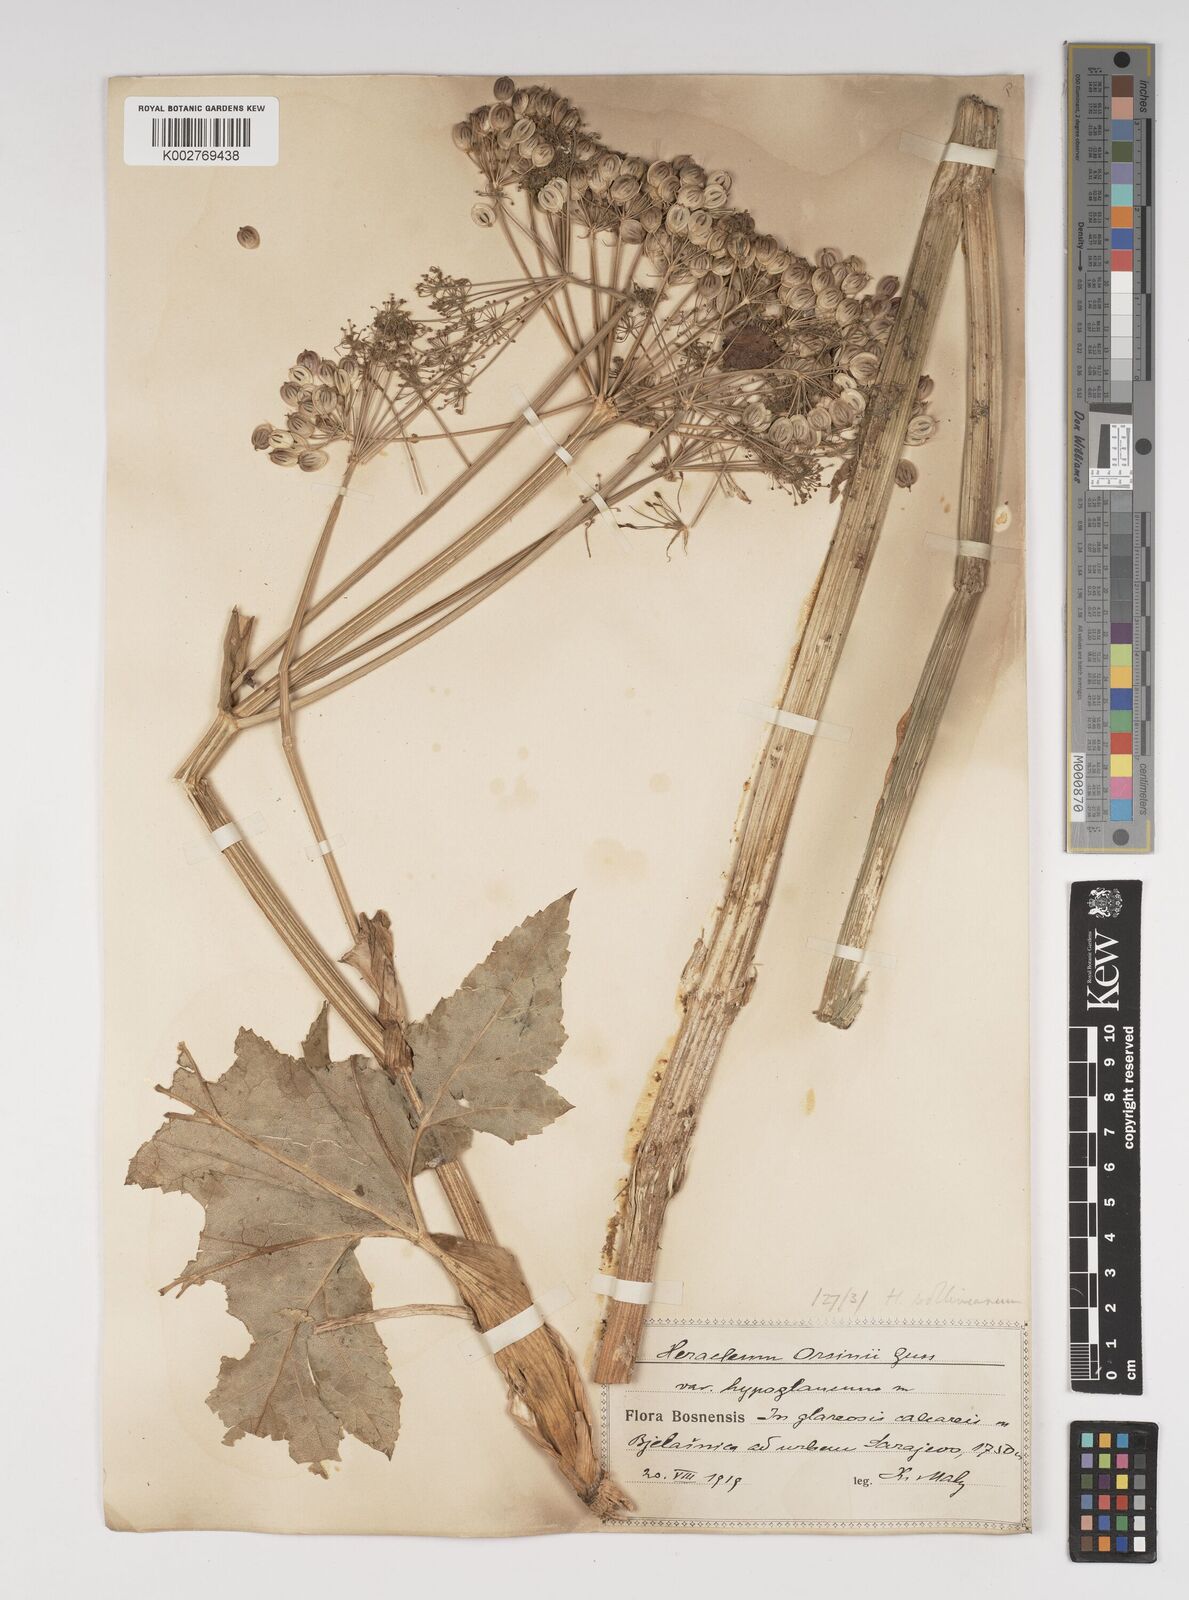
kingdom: Plantae
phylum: Tracheophyta
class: Magnoliopsida
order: Apiales
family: Apiaceae
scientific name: Apiaceae
